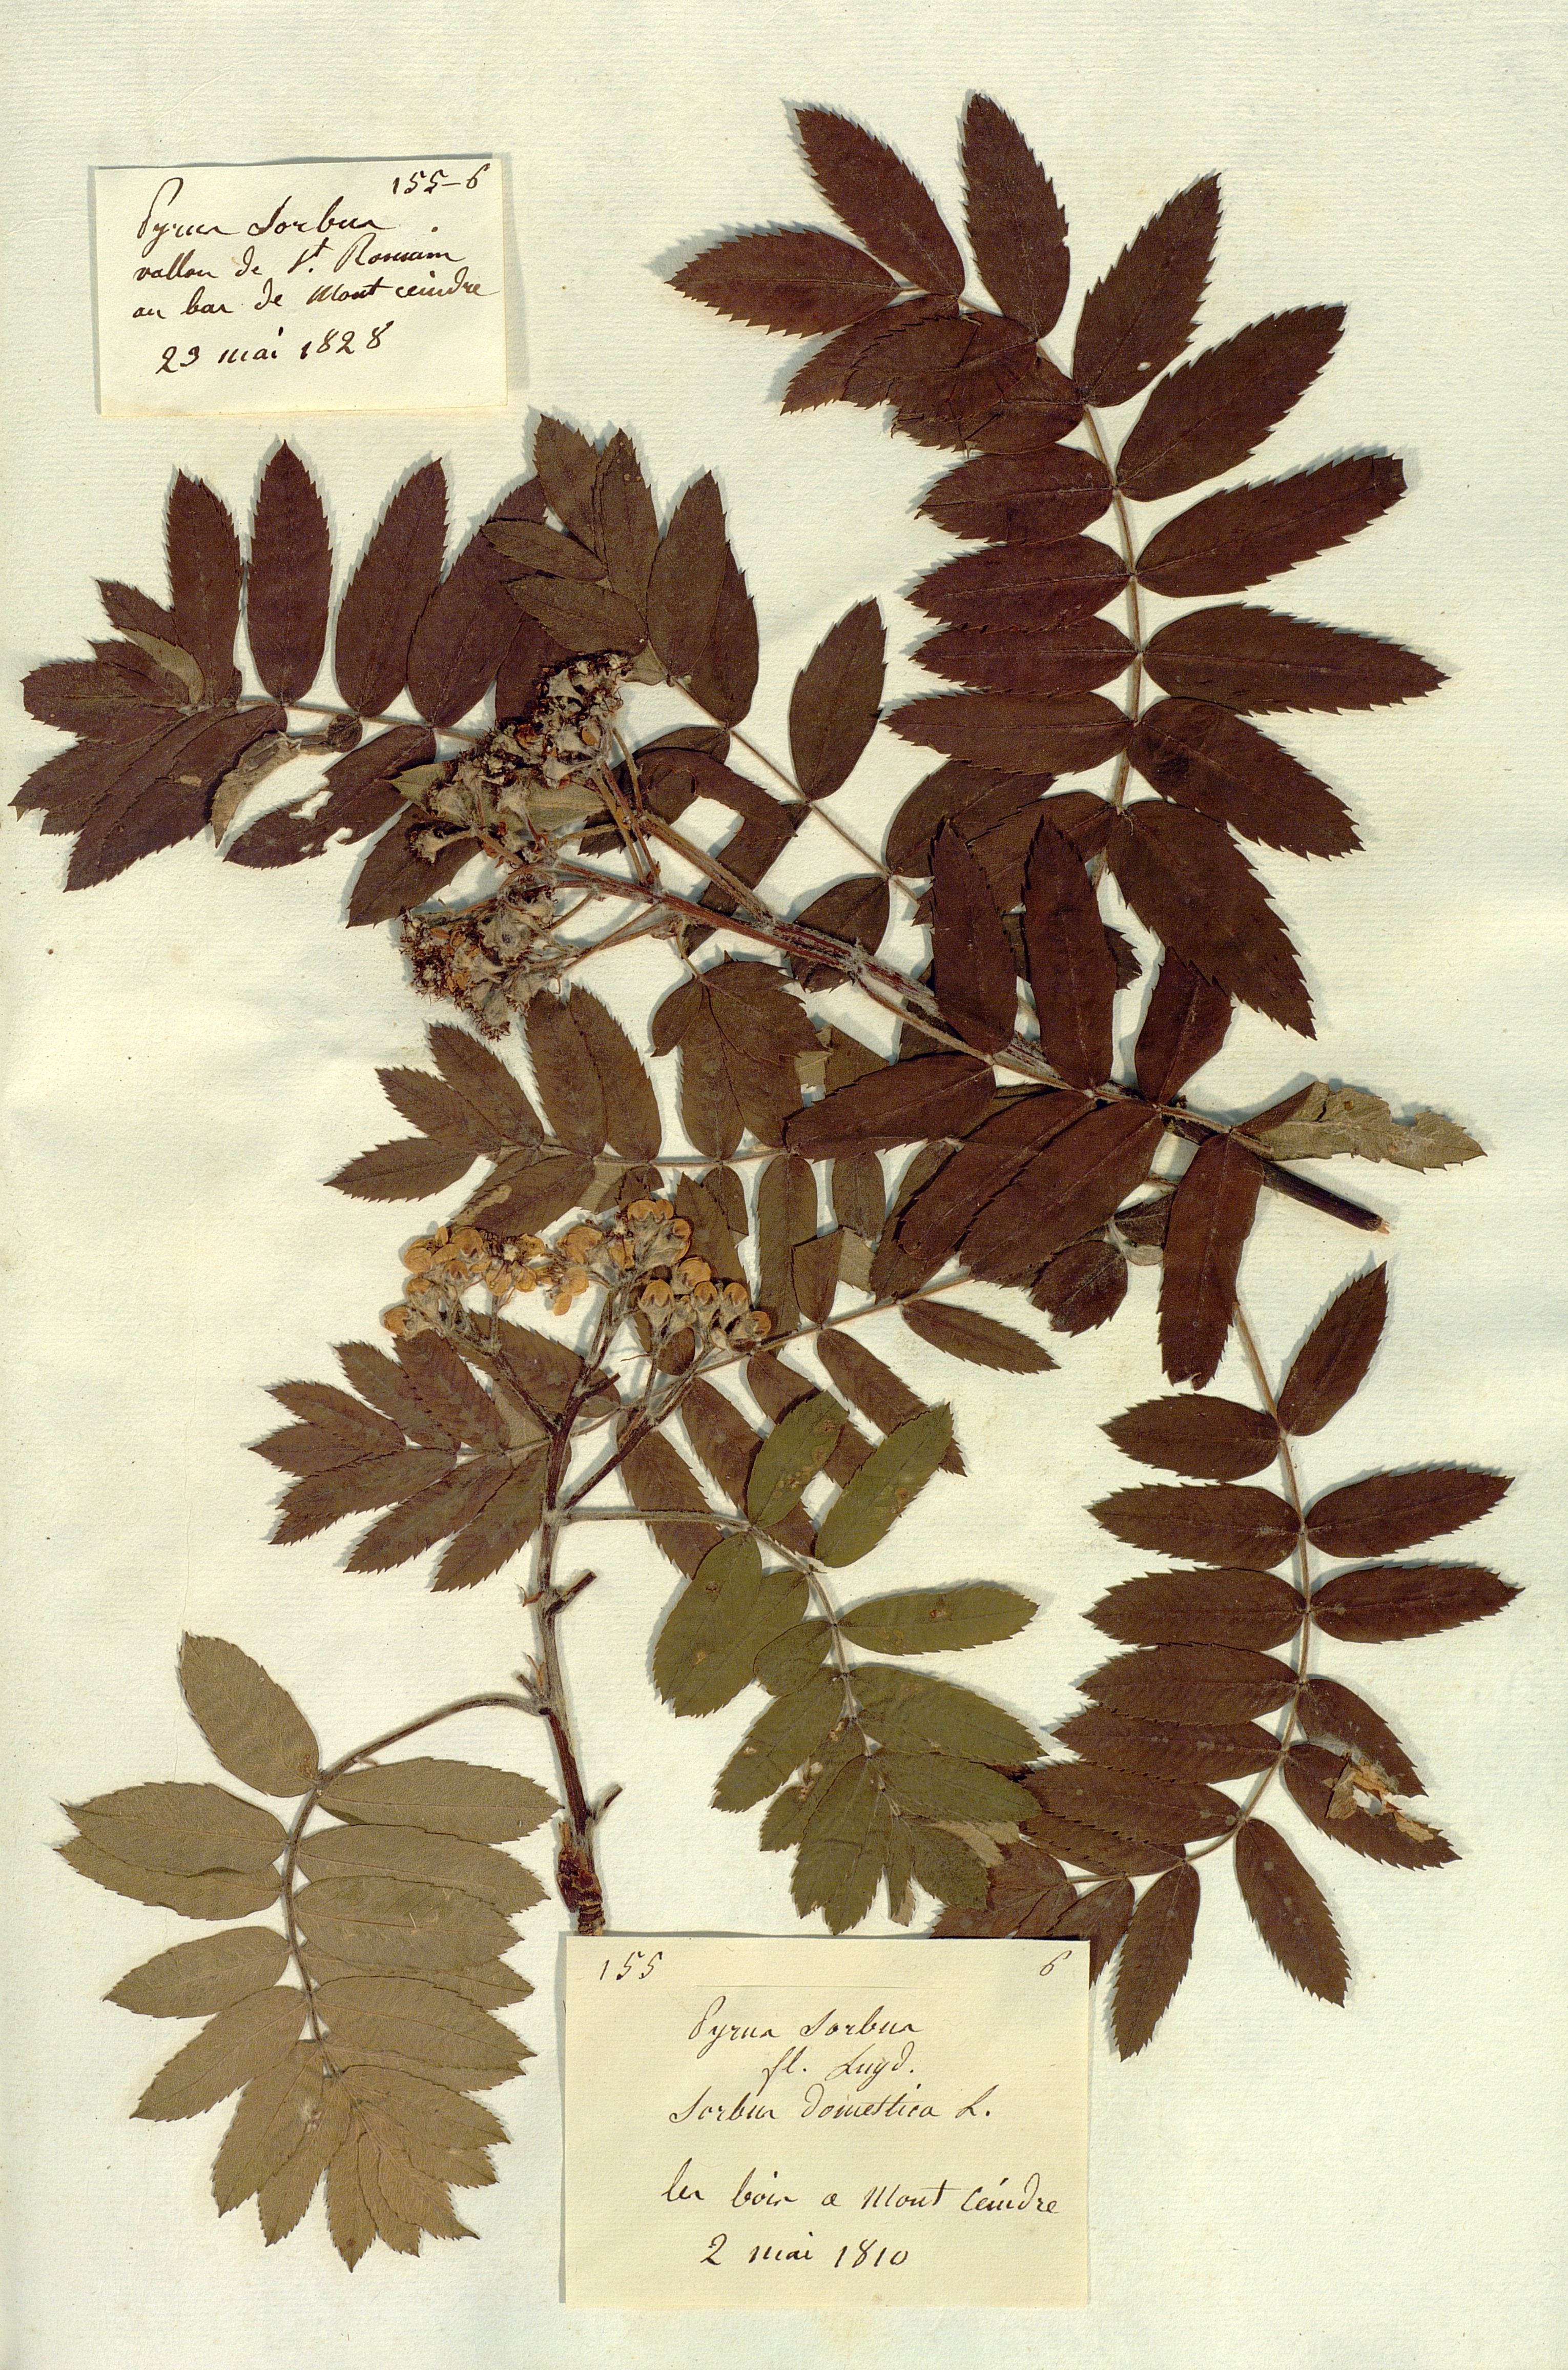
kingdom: Plantae
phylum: Tracheophyta
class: Magnoliopsida
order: Rosales
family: Rosaceae
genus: Cormus
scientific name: Cormus domestica
